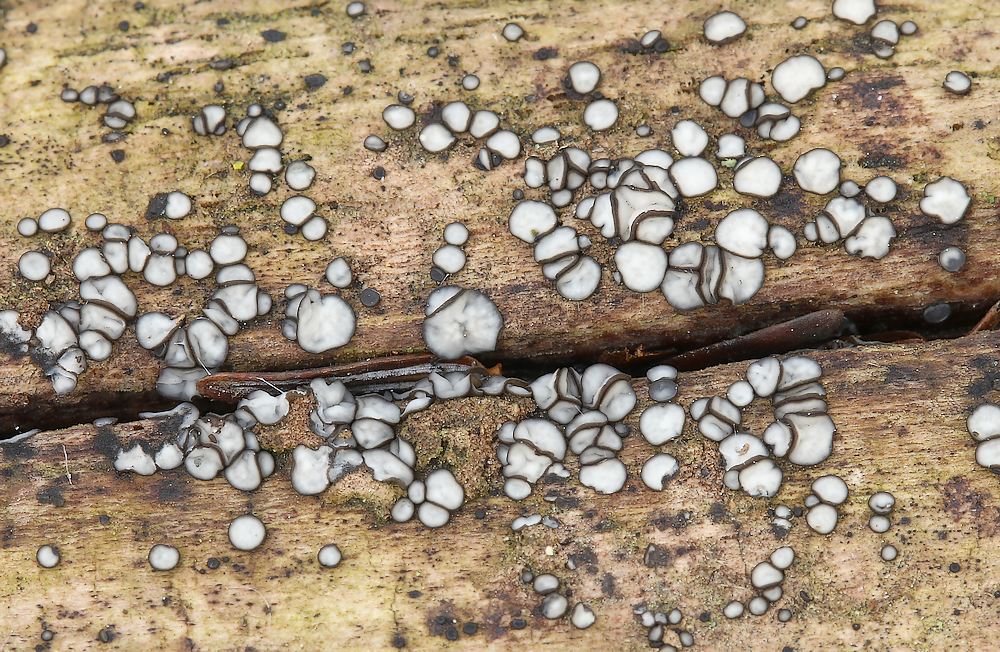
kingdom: Fungi
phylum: Ascomycota
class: Leotiomycetes
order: Helotiales
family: Mollisiaceae
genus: Mollisia
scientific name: Mollisia
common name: gråskive
